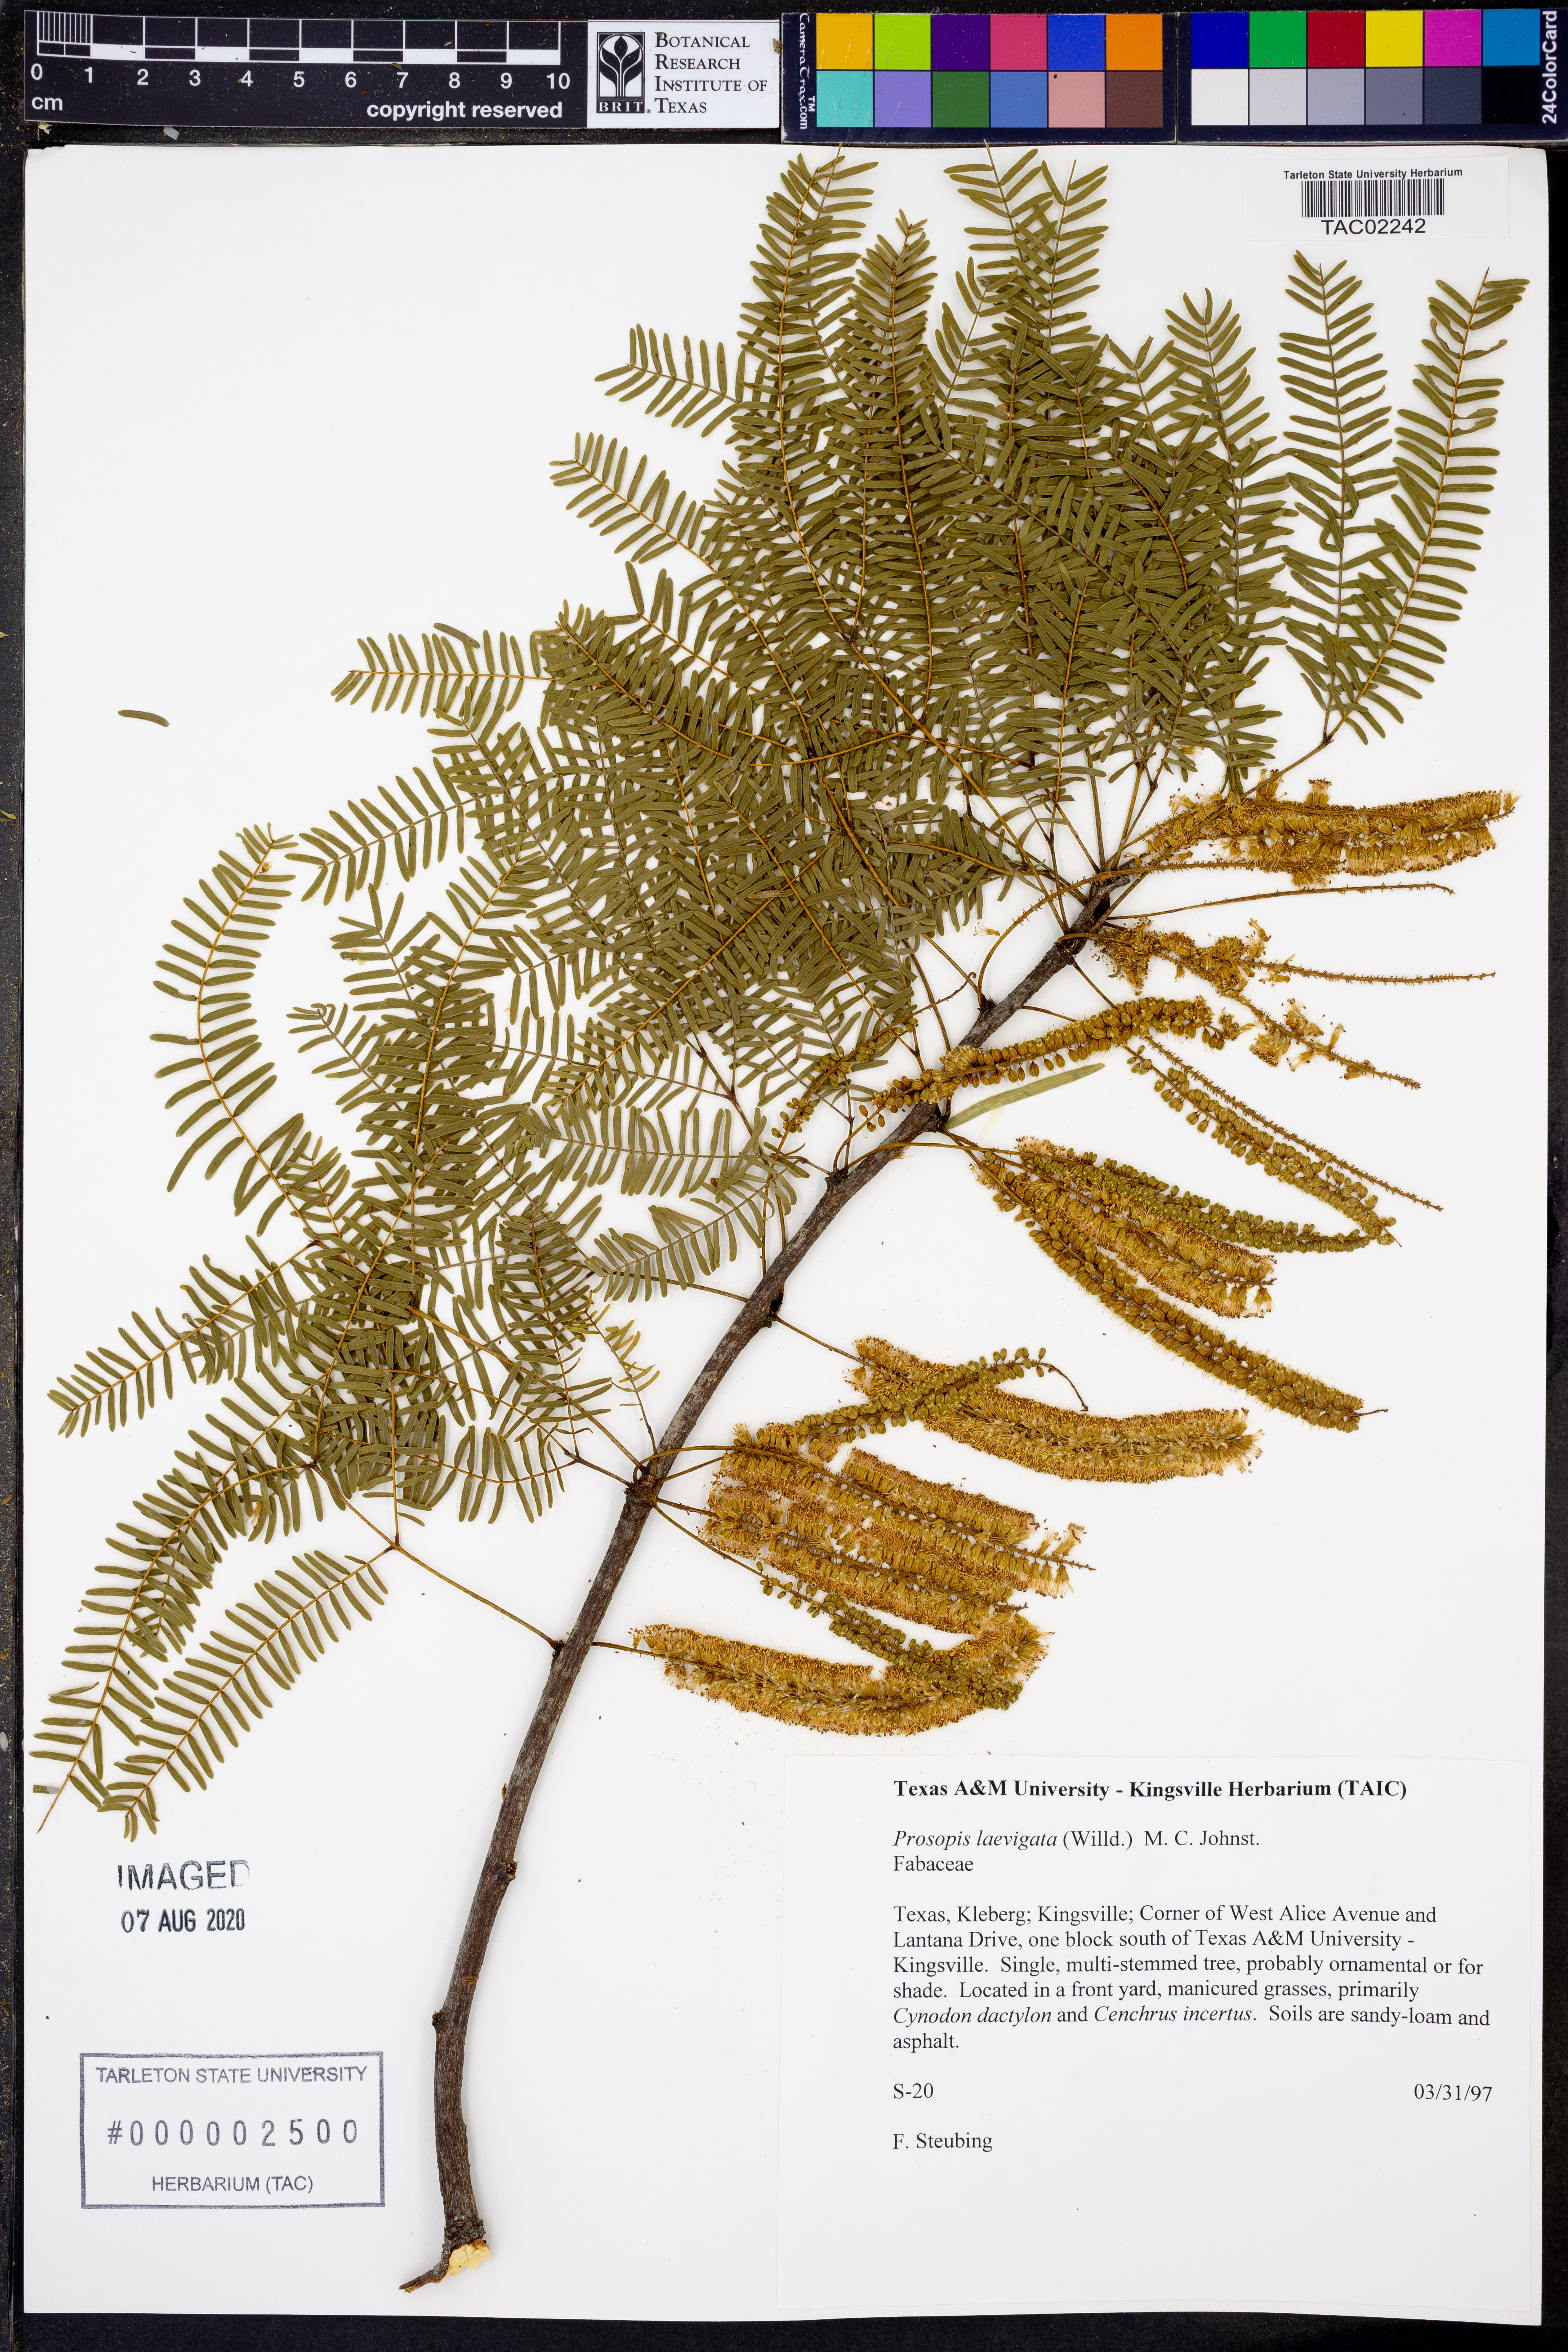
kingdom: Plantae
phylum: Tracheophyta
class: Magnoliopsida
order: Fabales
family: Fabaceae
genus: Prosopis
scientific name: Prosopis laevigata
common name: Smooth mesquite
